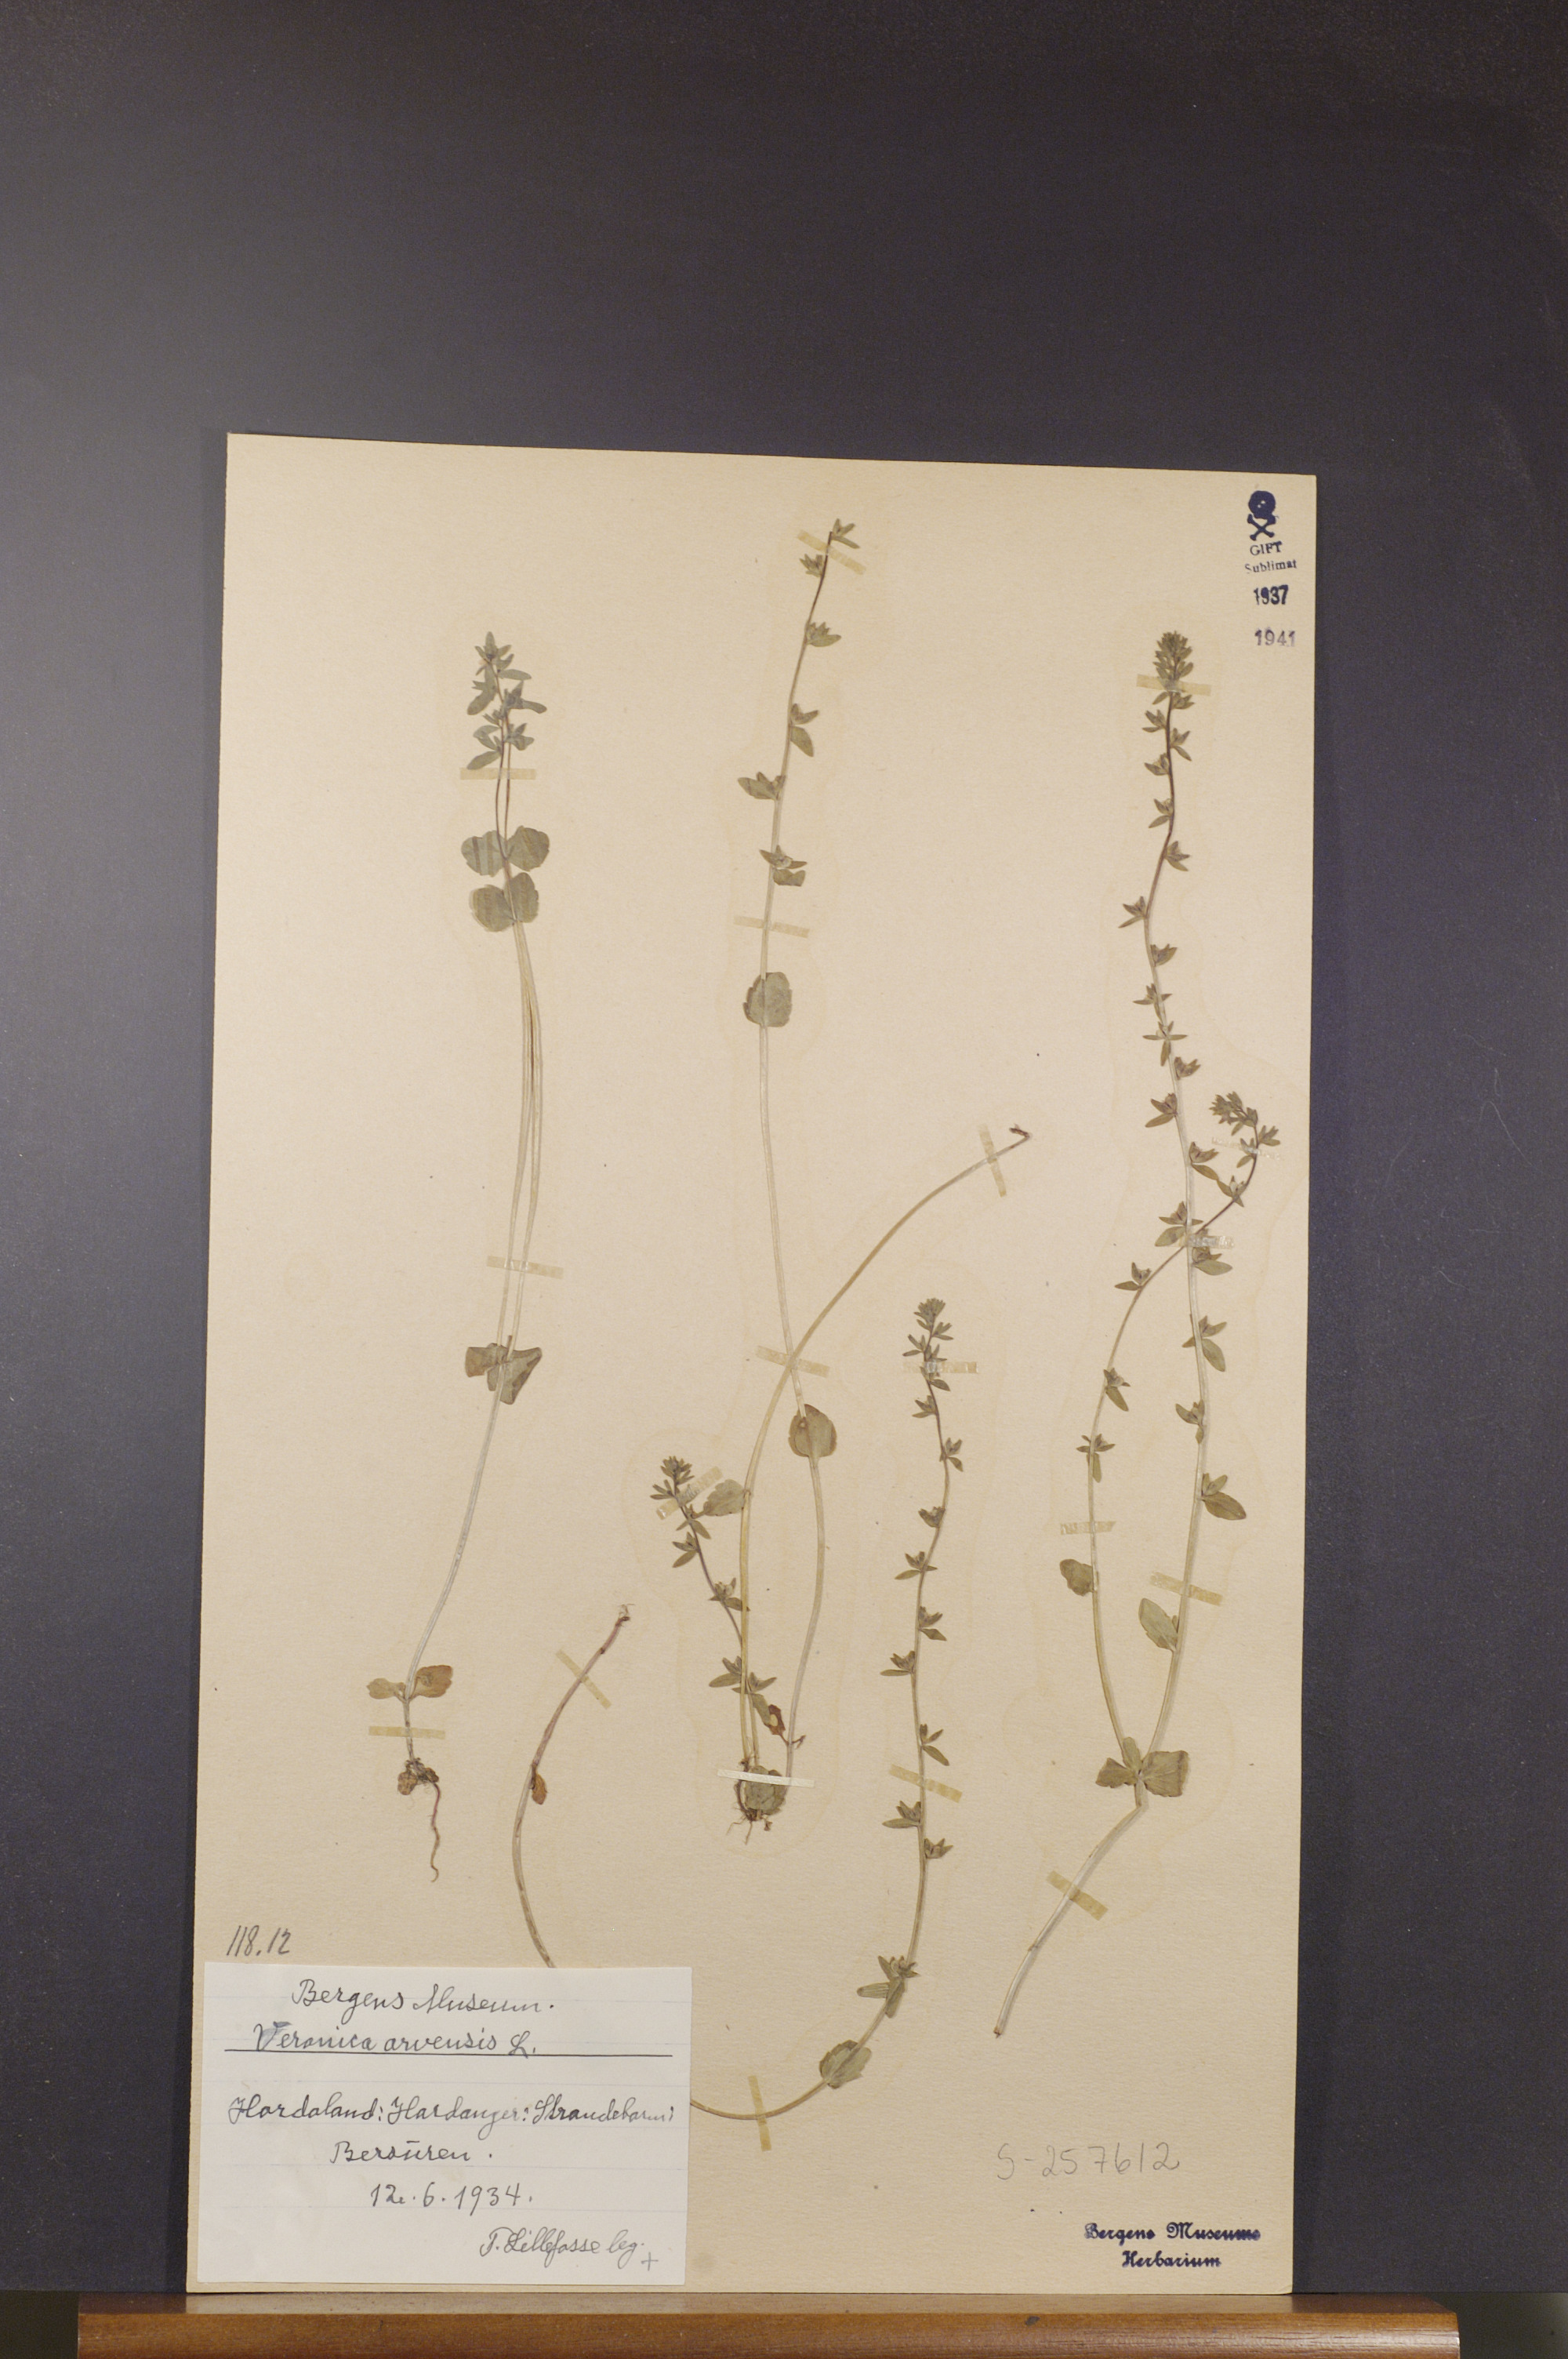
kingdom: Plantae
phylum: Tracheophyta
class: Magnoliopsida
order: Lamiales
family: Plantaginaceae
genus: Veronica
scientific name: Veronica arvensis
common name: Corn speedwell
